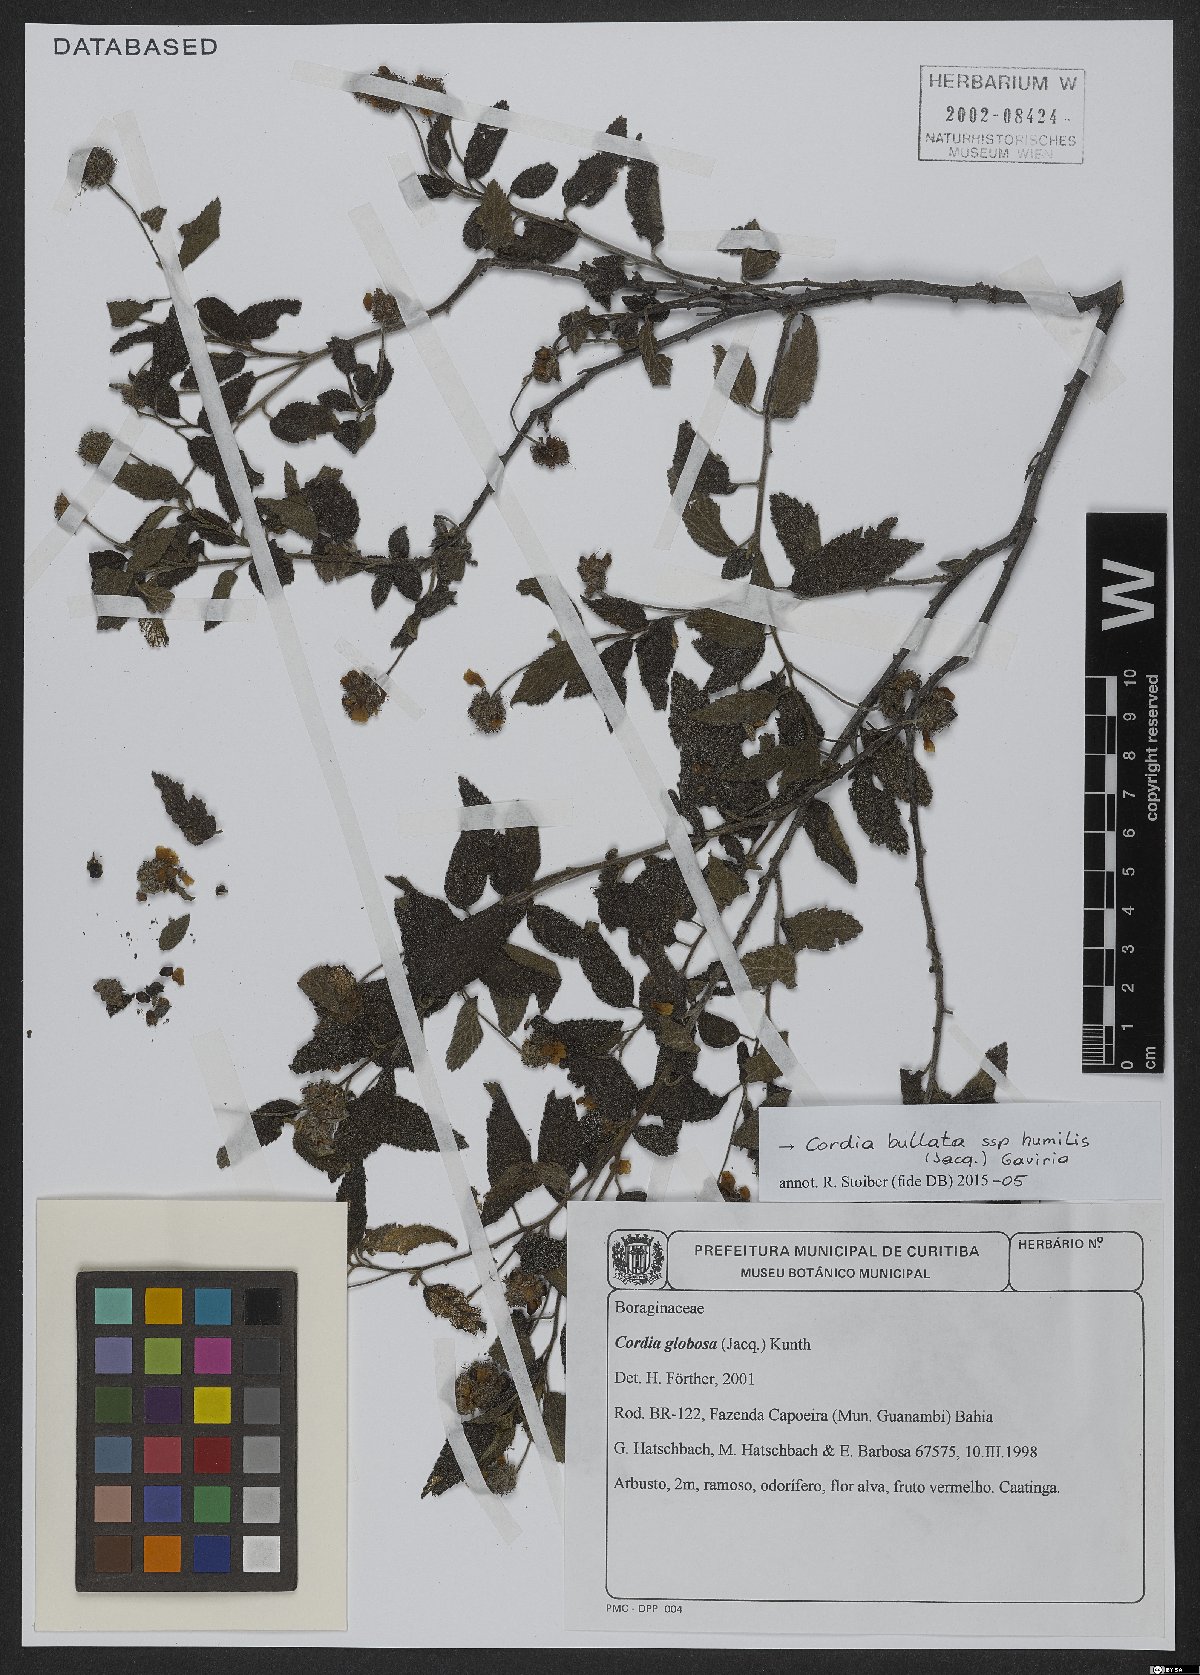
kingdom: Plantae
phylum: Tracheophyta
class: Magnoliopsida
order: Boraginales
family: Cordiaceae
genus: Varronia
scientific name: Varronia bullata
